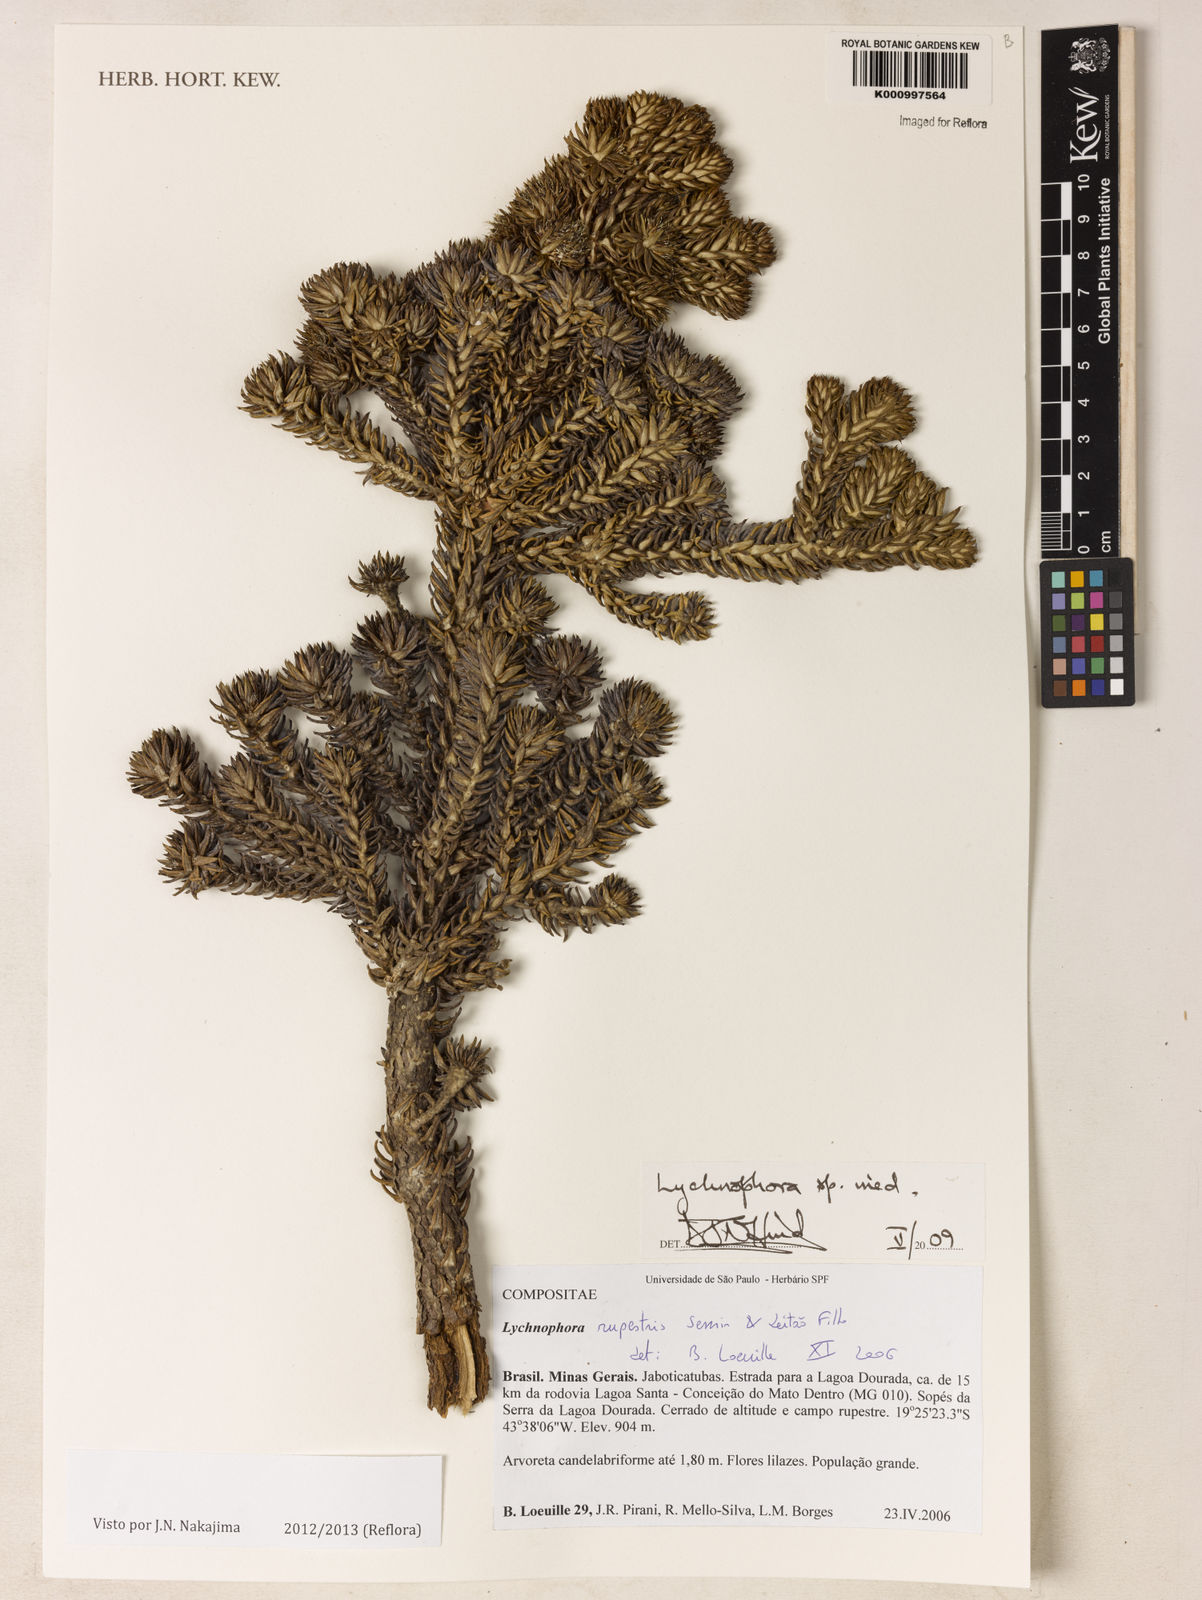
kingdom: Plantae
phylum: Tracheophyta
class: Magnoliopsida
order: Asterales
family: Asteraceae
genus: Lychnophora
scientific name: Lychnophora
